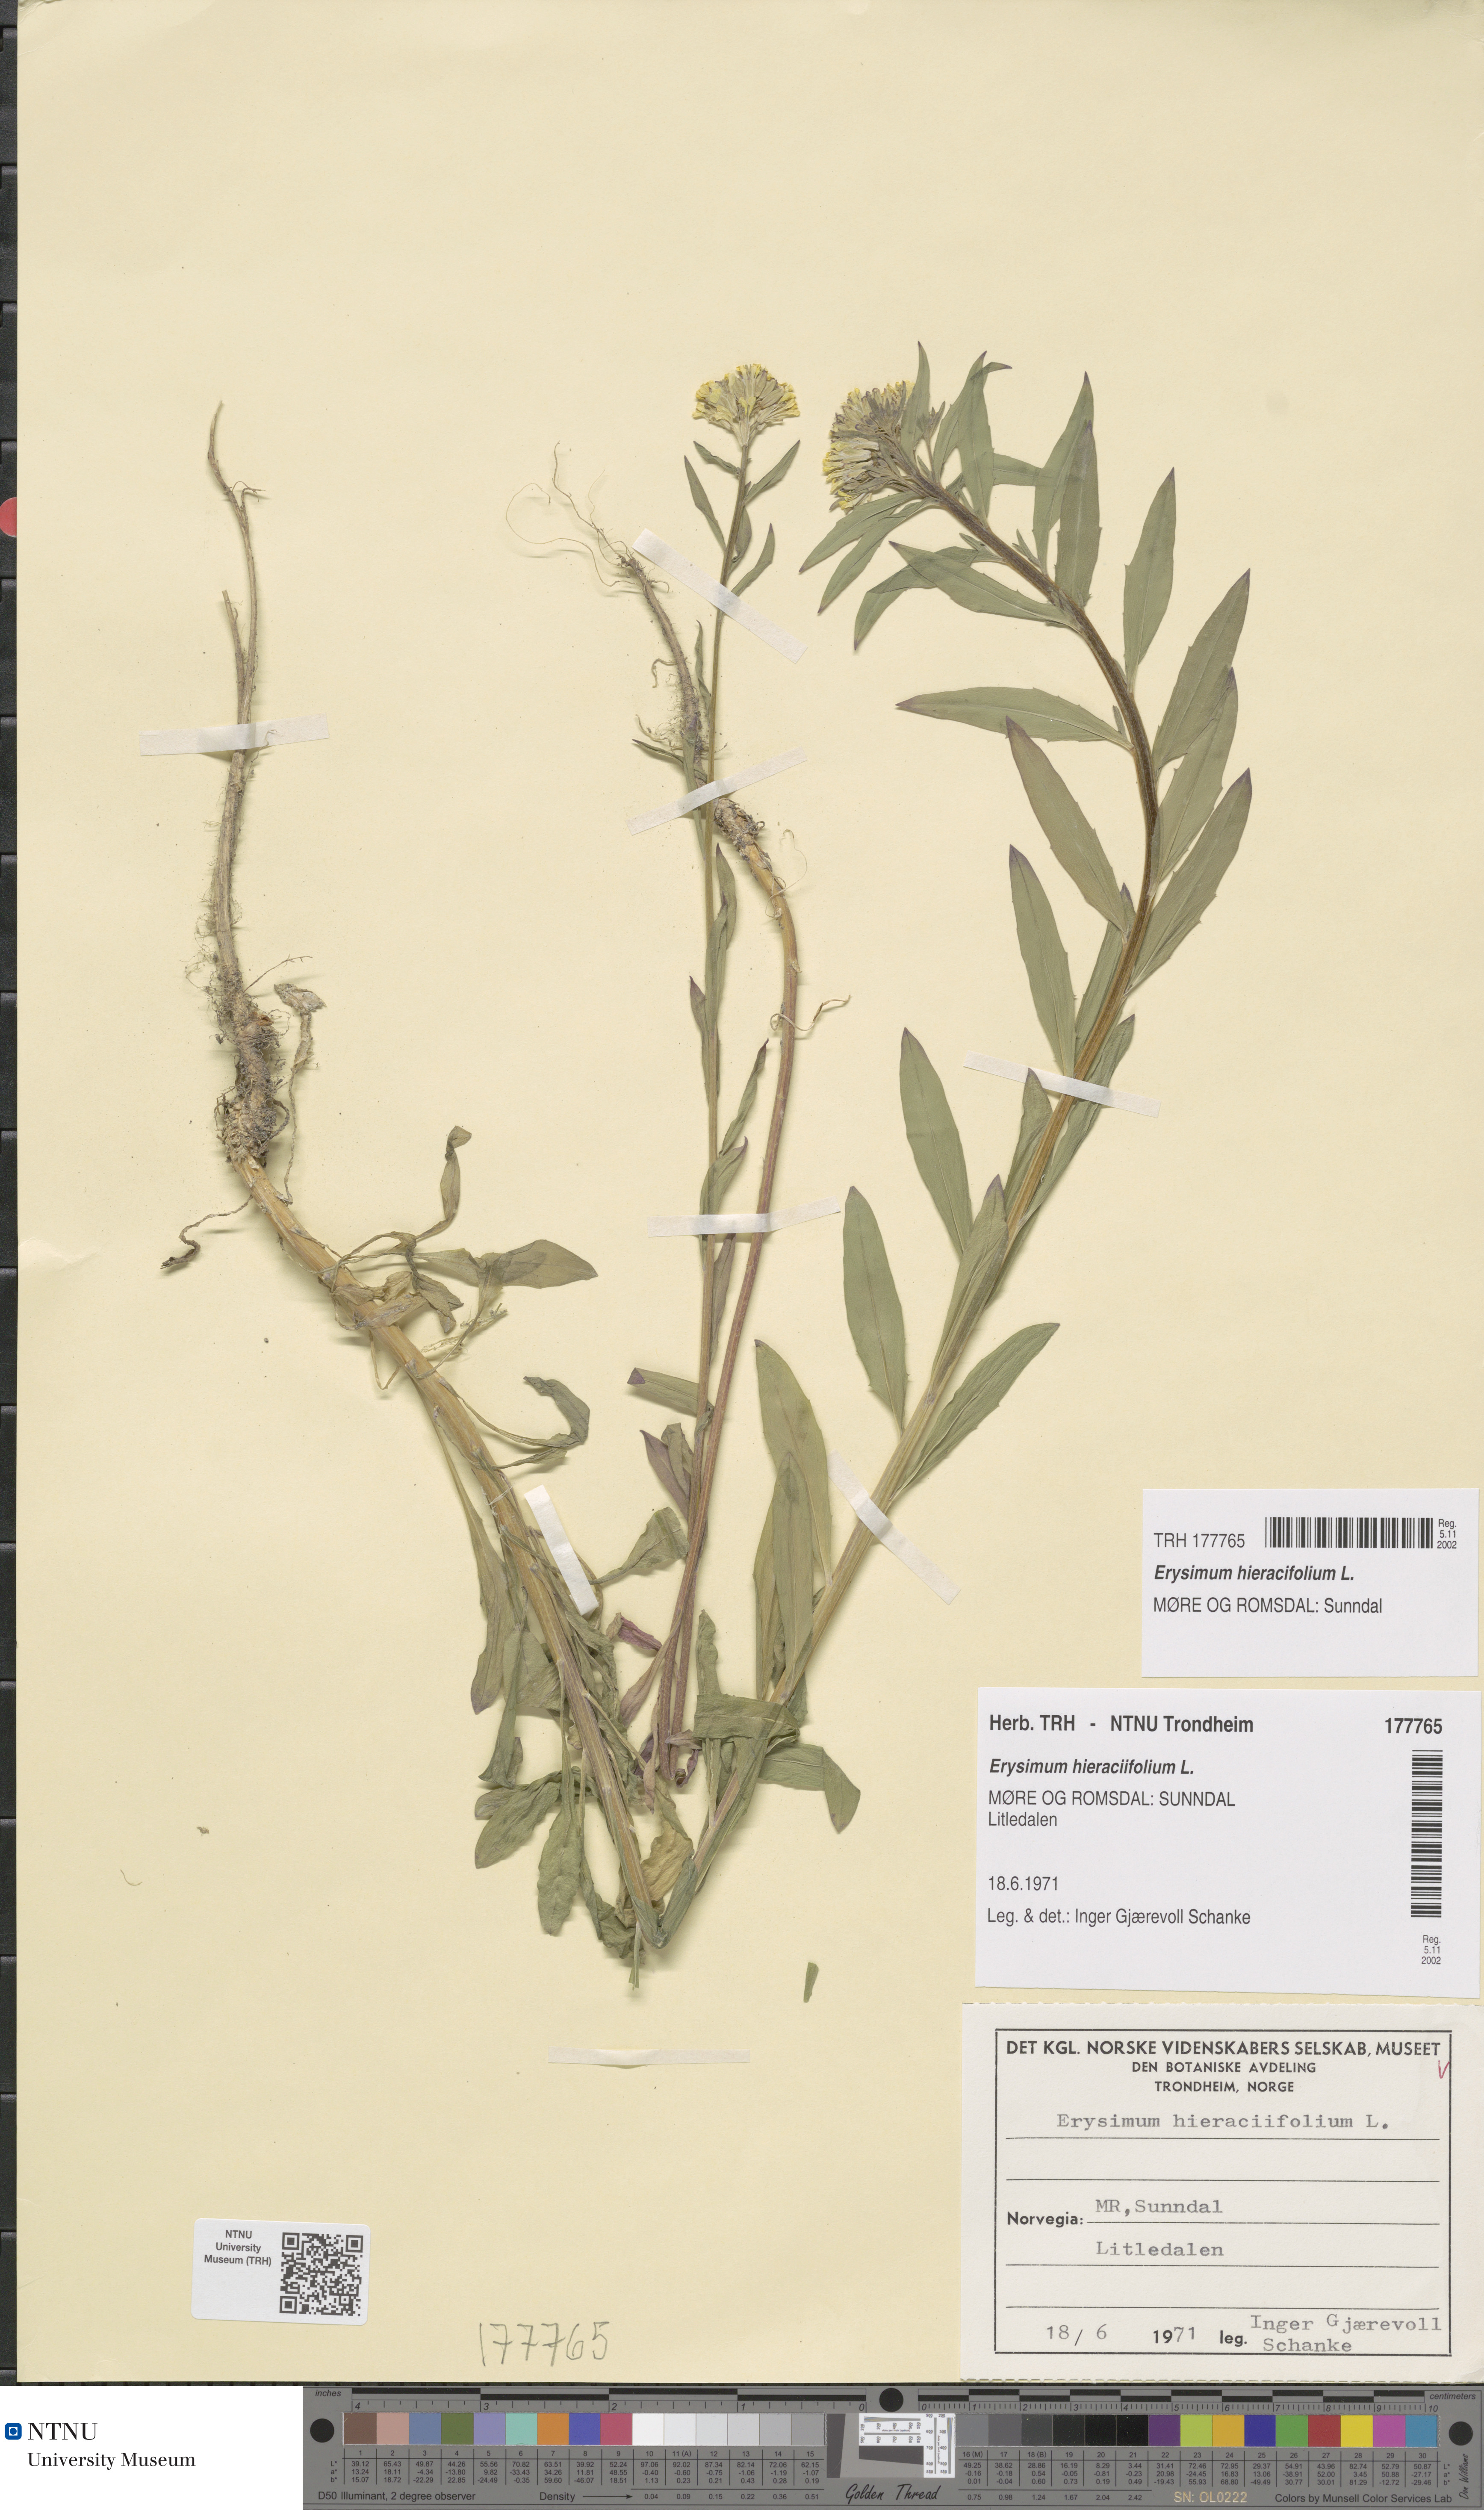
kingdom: Plantae
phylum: Tracheophyta
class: Magnoliopsida
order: Brassicales
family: Brassicaceae
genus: Erysimum
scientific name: Erysimum virgatum
